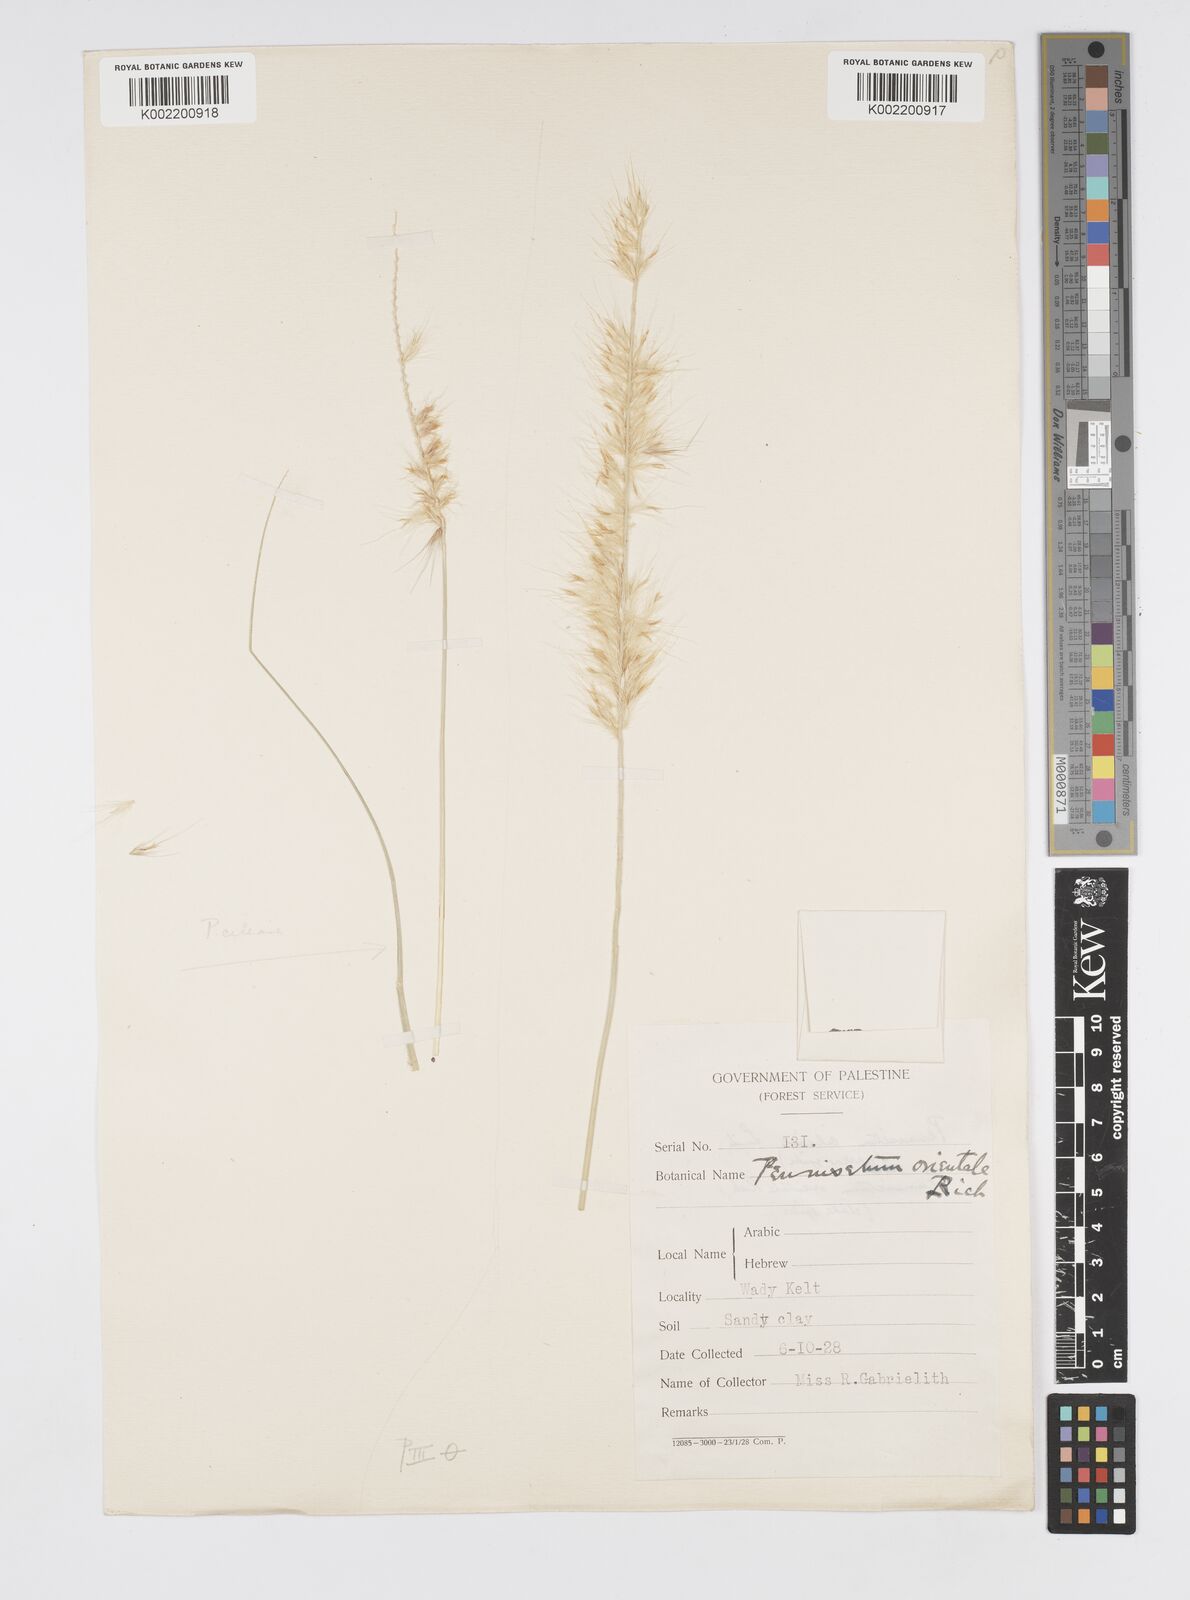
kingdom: Plantae
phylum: Tracheophyta
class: Liliopsida
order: Poales
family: Poaceae
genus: Cenchrus
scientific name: Cenchrus setaceus
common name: Crimson fountaingrass
